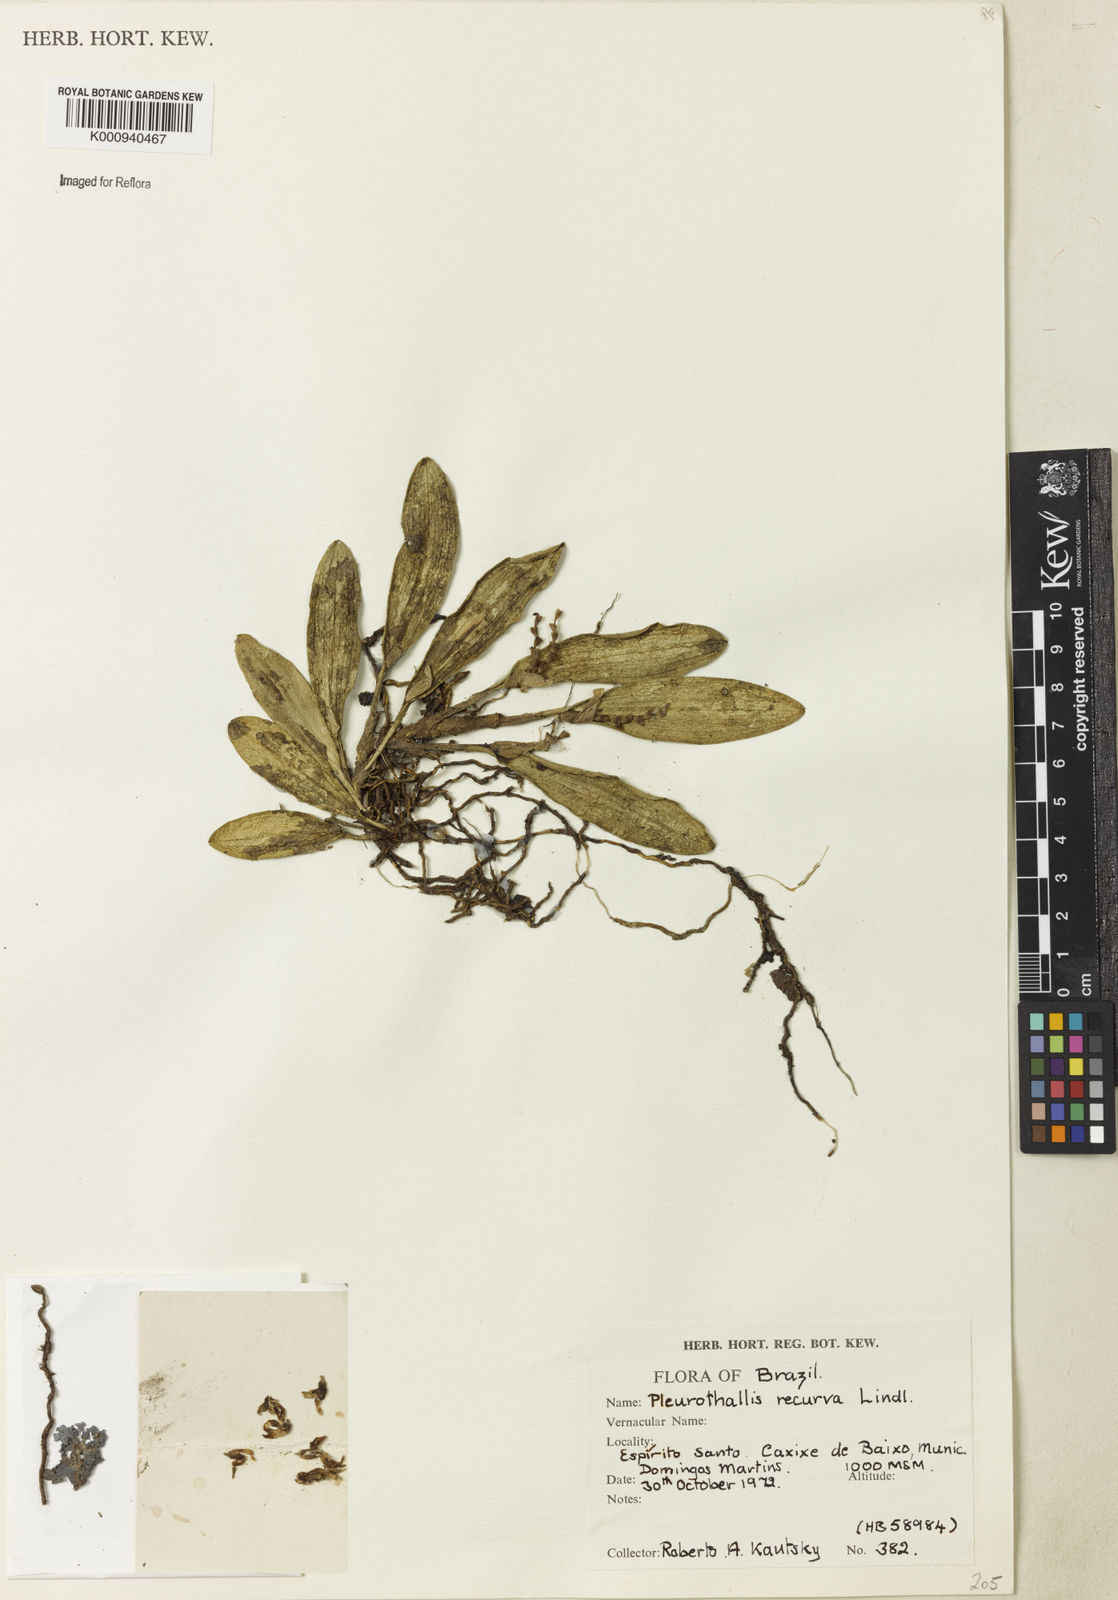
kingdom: Plantae
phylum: Tracheophyta
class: Liliopsida
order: Asparagales
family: Orchidaceae
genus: Acianthera
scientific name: Acianthera recurva
